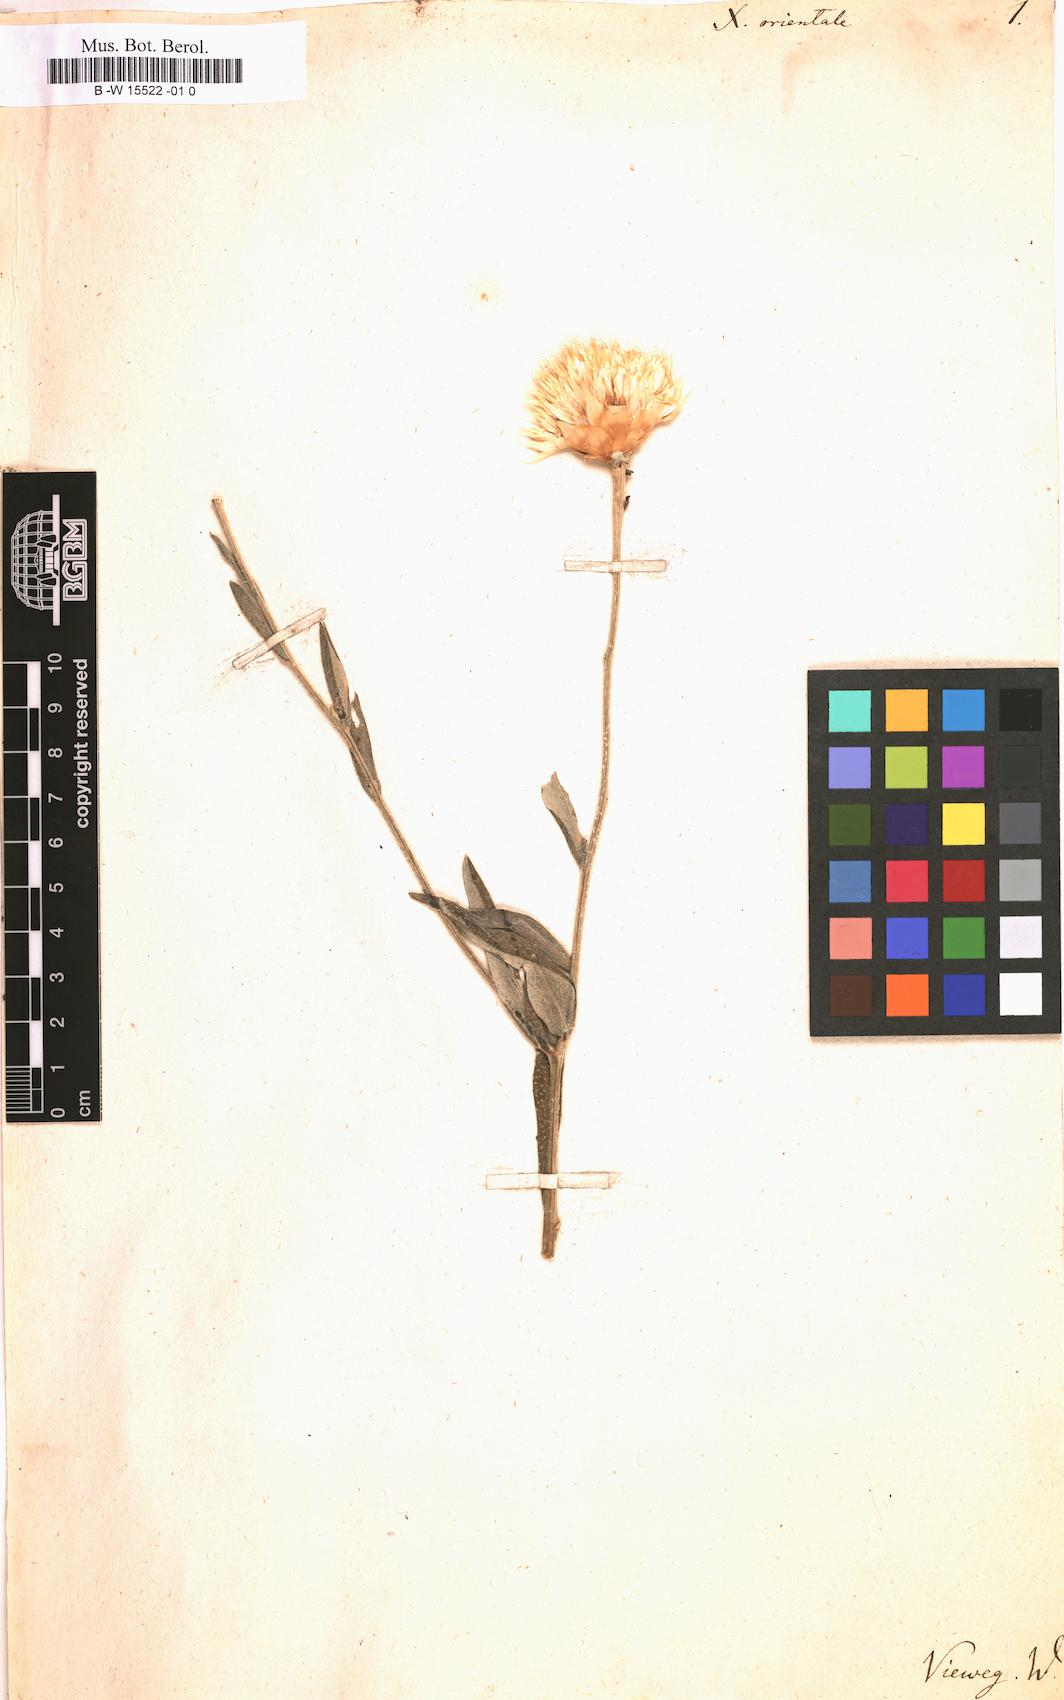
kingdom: Plantae
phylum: Tracheophyta
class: Magnoliopsida
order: Asterales
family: Asteraceae
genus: Chardinia
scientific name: Chardinia orientalis
